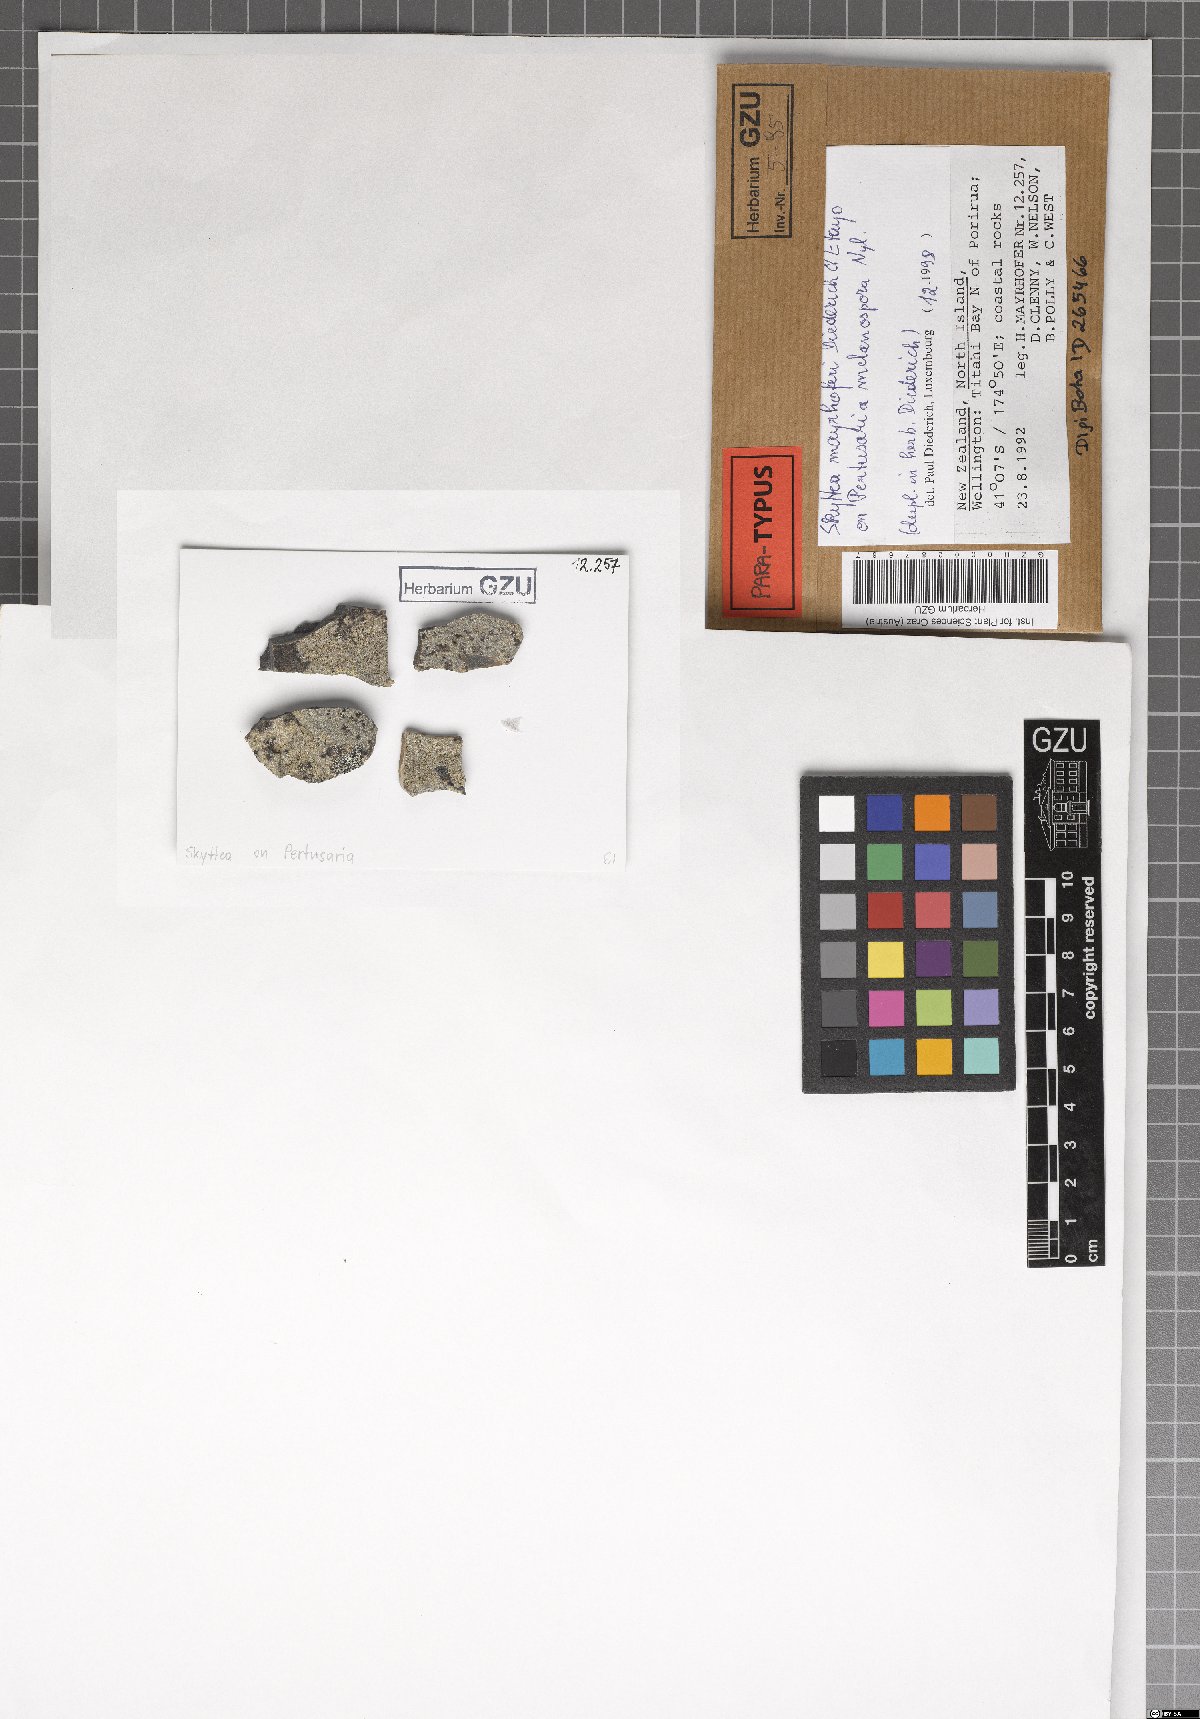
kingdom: Fungi
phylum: Ascomycota
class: Leotiomycetes
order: Helotiales
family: Cordieritidaceae
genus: Skyttea
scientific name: Skyttea mayrhoferi
